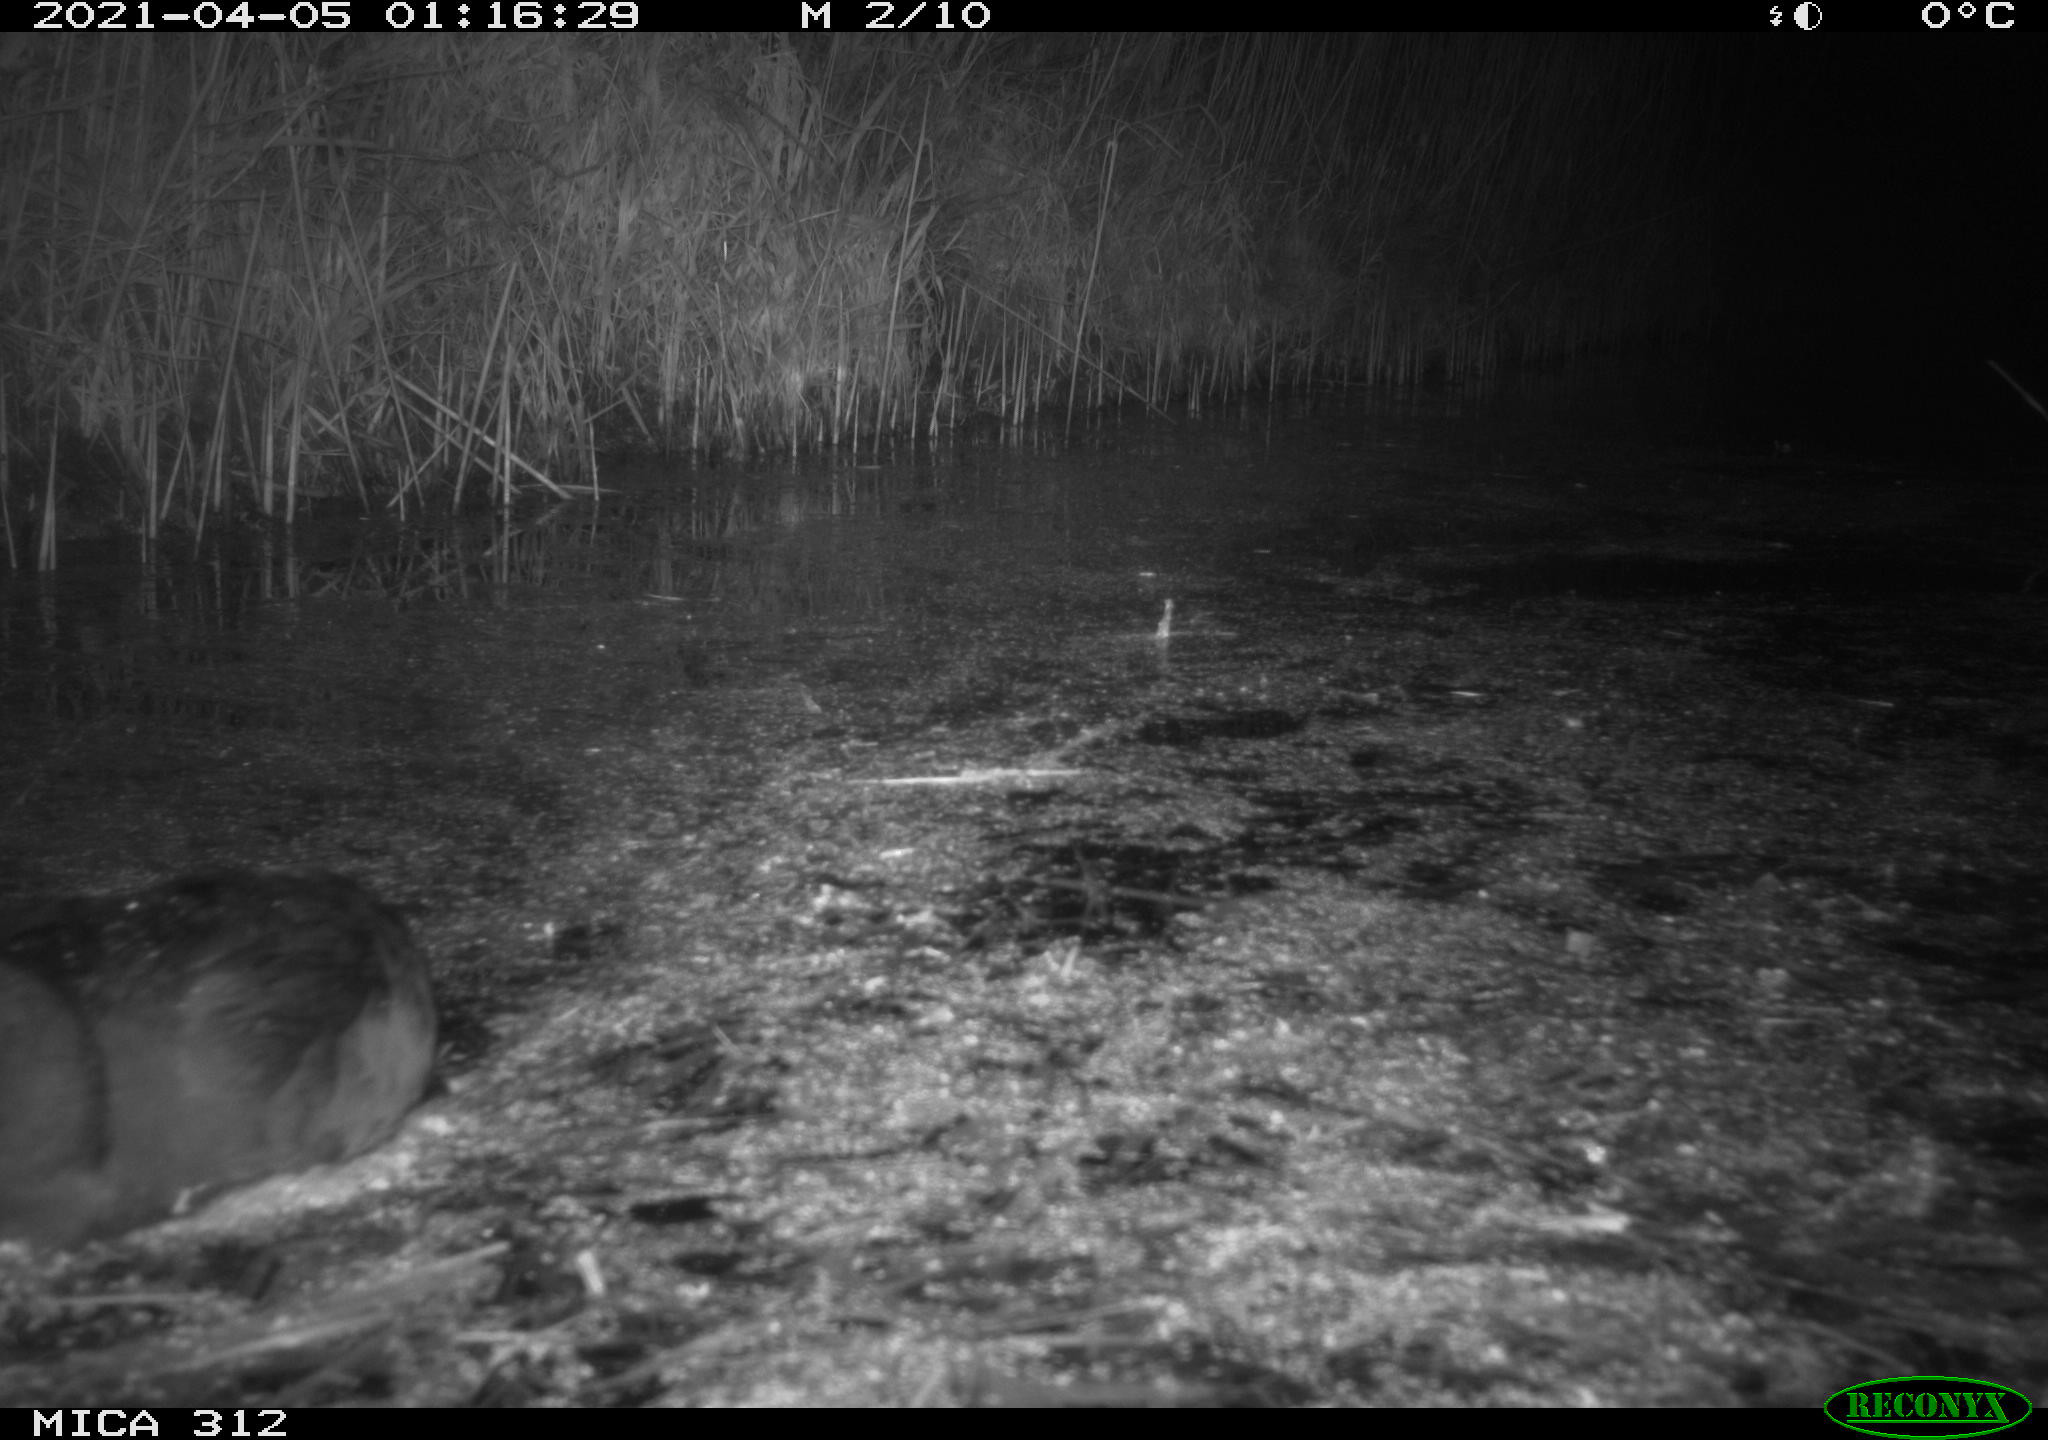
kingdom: Animalia
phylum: Chordata
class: Aves
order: Gruiformes
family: Rallidae
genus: Fulica
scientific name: Fulica atra
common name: Eurasian coot
